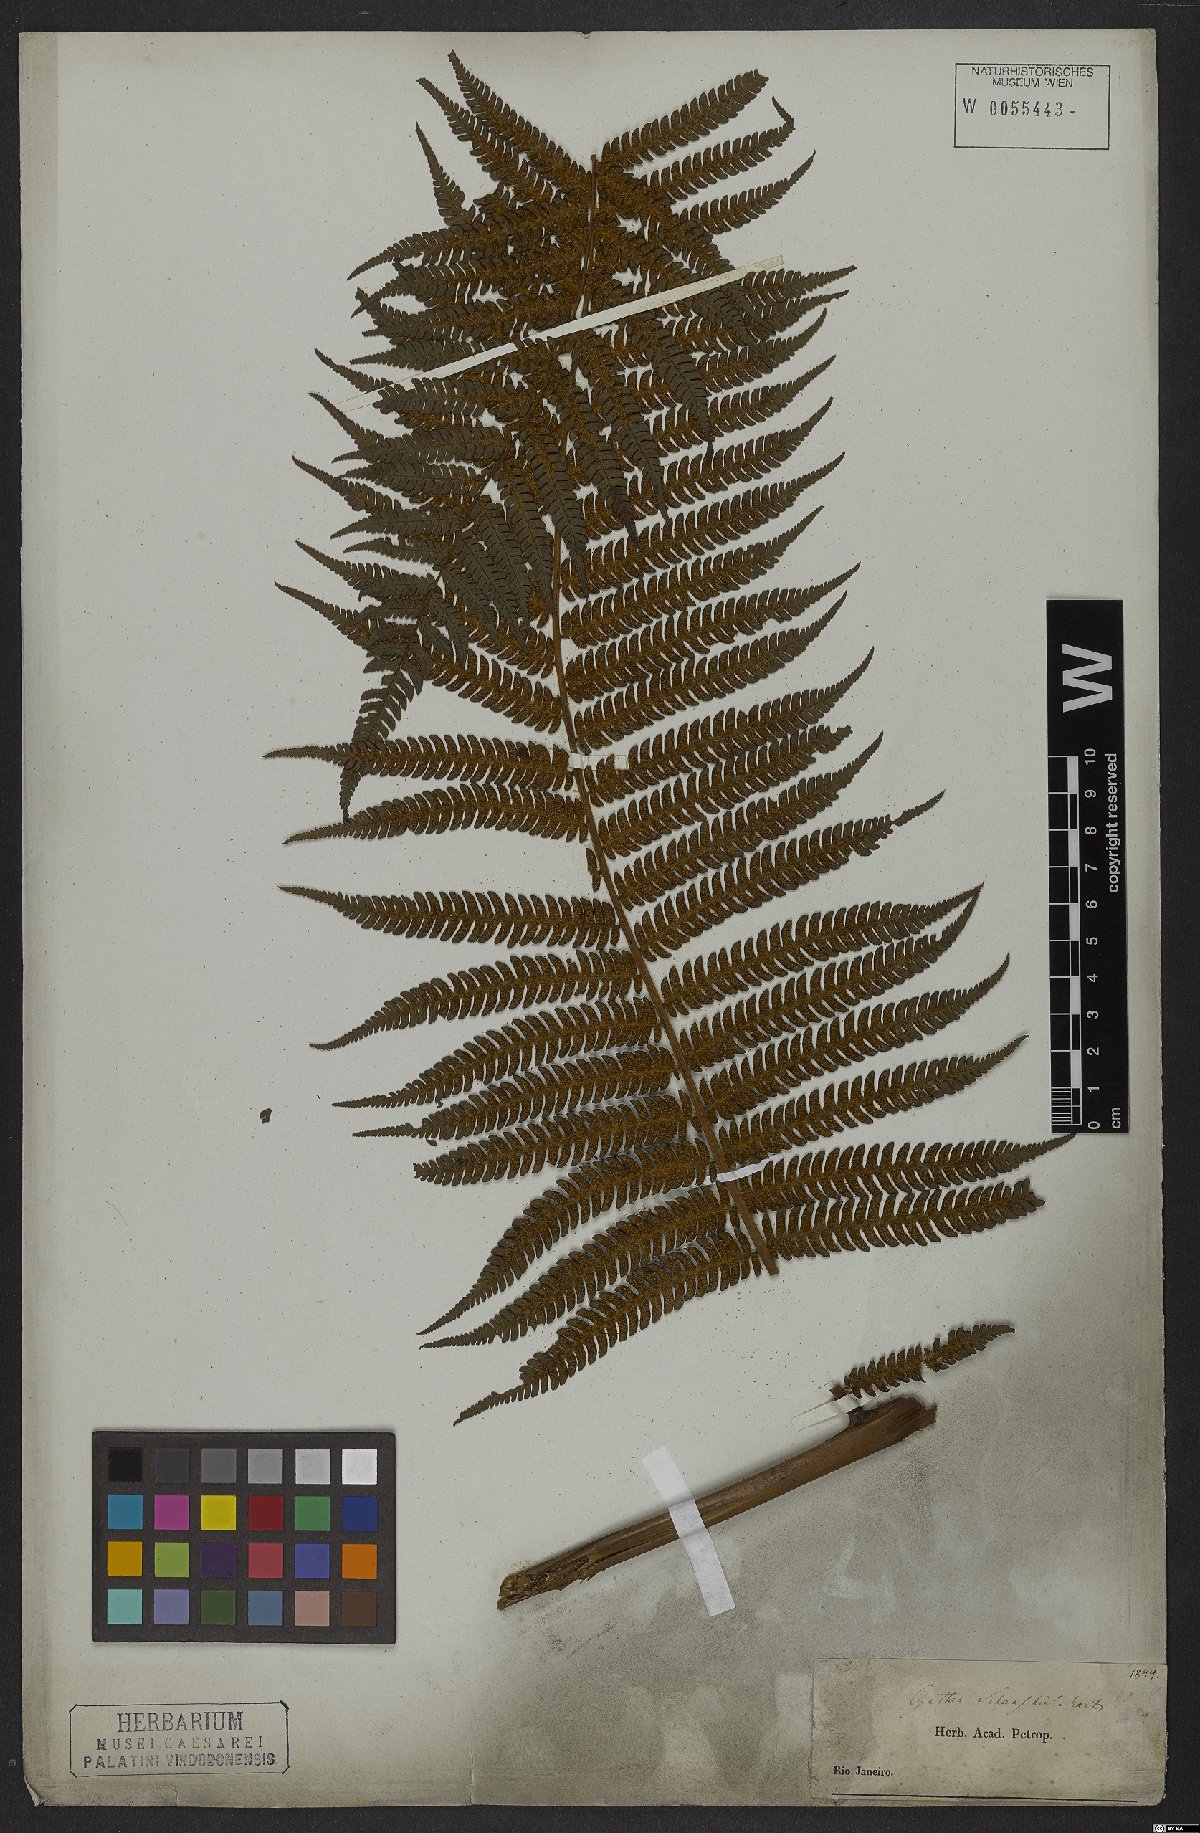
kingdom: Plantae
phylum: Tracheophyta
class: Polypodiopsida
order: Cyatheales
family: Cyatheaceae
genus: Cyathea
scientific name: Cyathea delgadii
